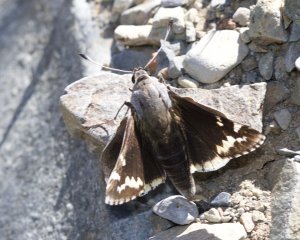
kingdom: Animalia
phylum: Arthropoda
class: Insecta
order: Lepidoptera
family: Hesperiidae
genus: Megathymus
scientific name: Megathymus yuccae
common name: Yucca Giant-Skipper
